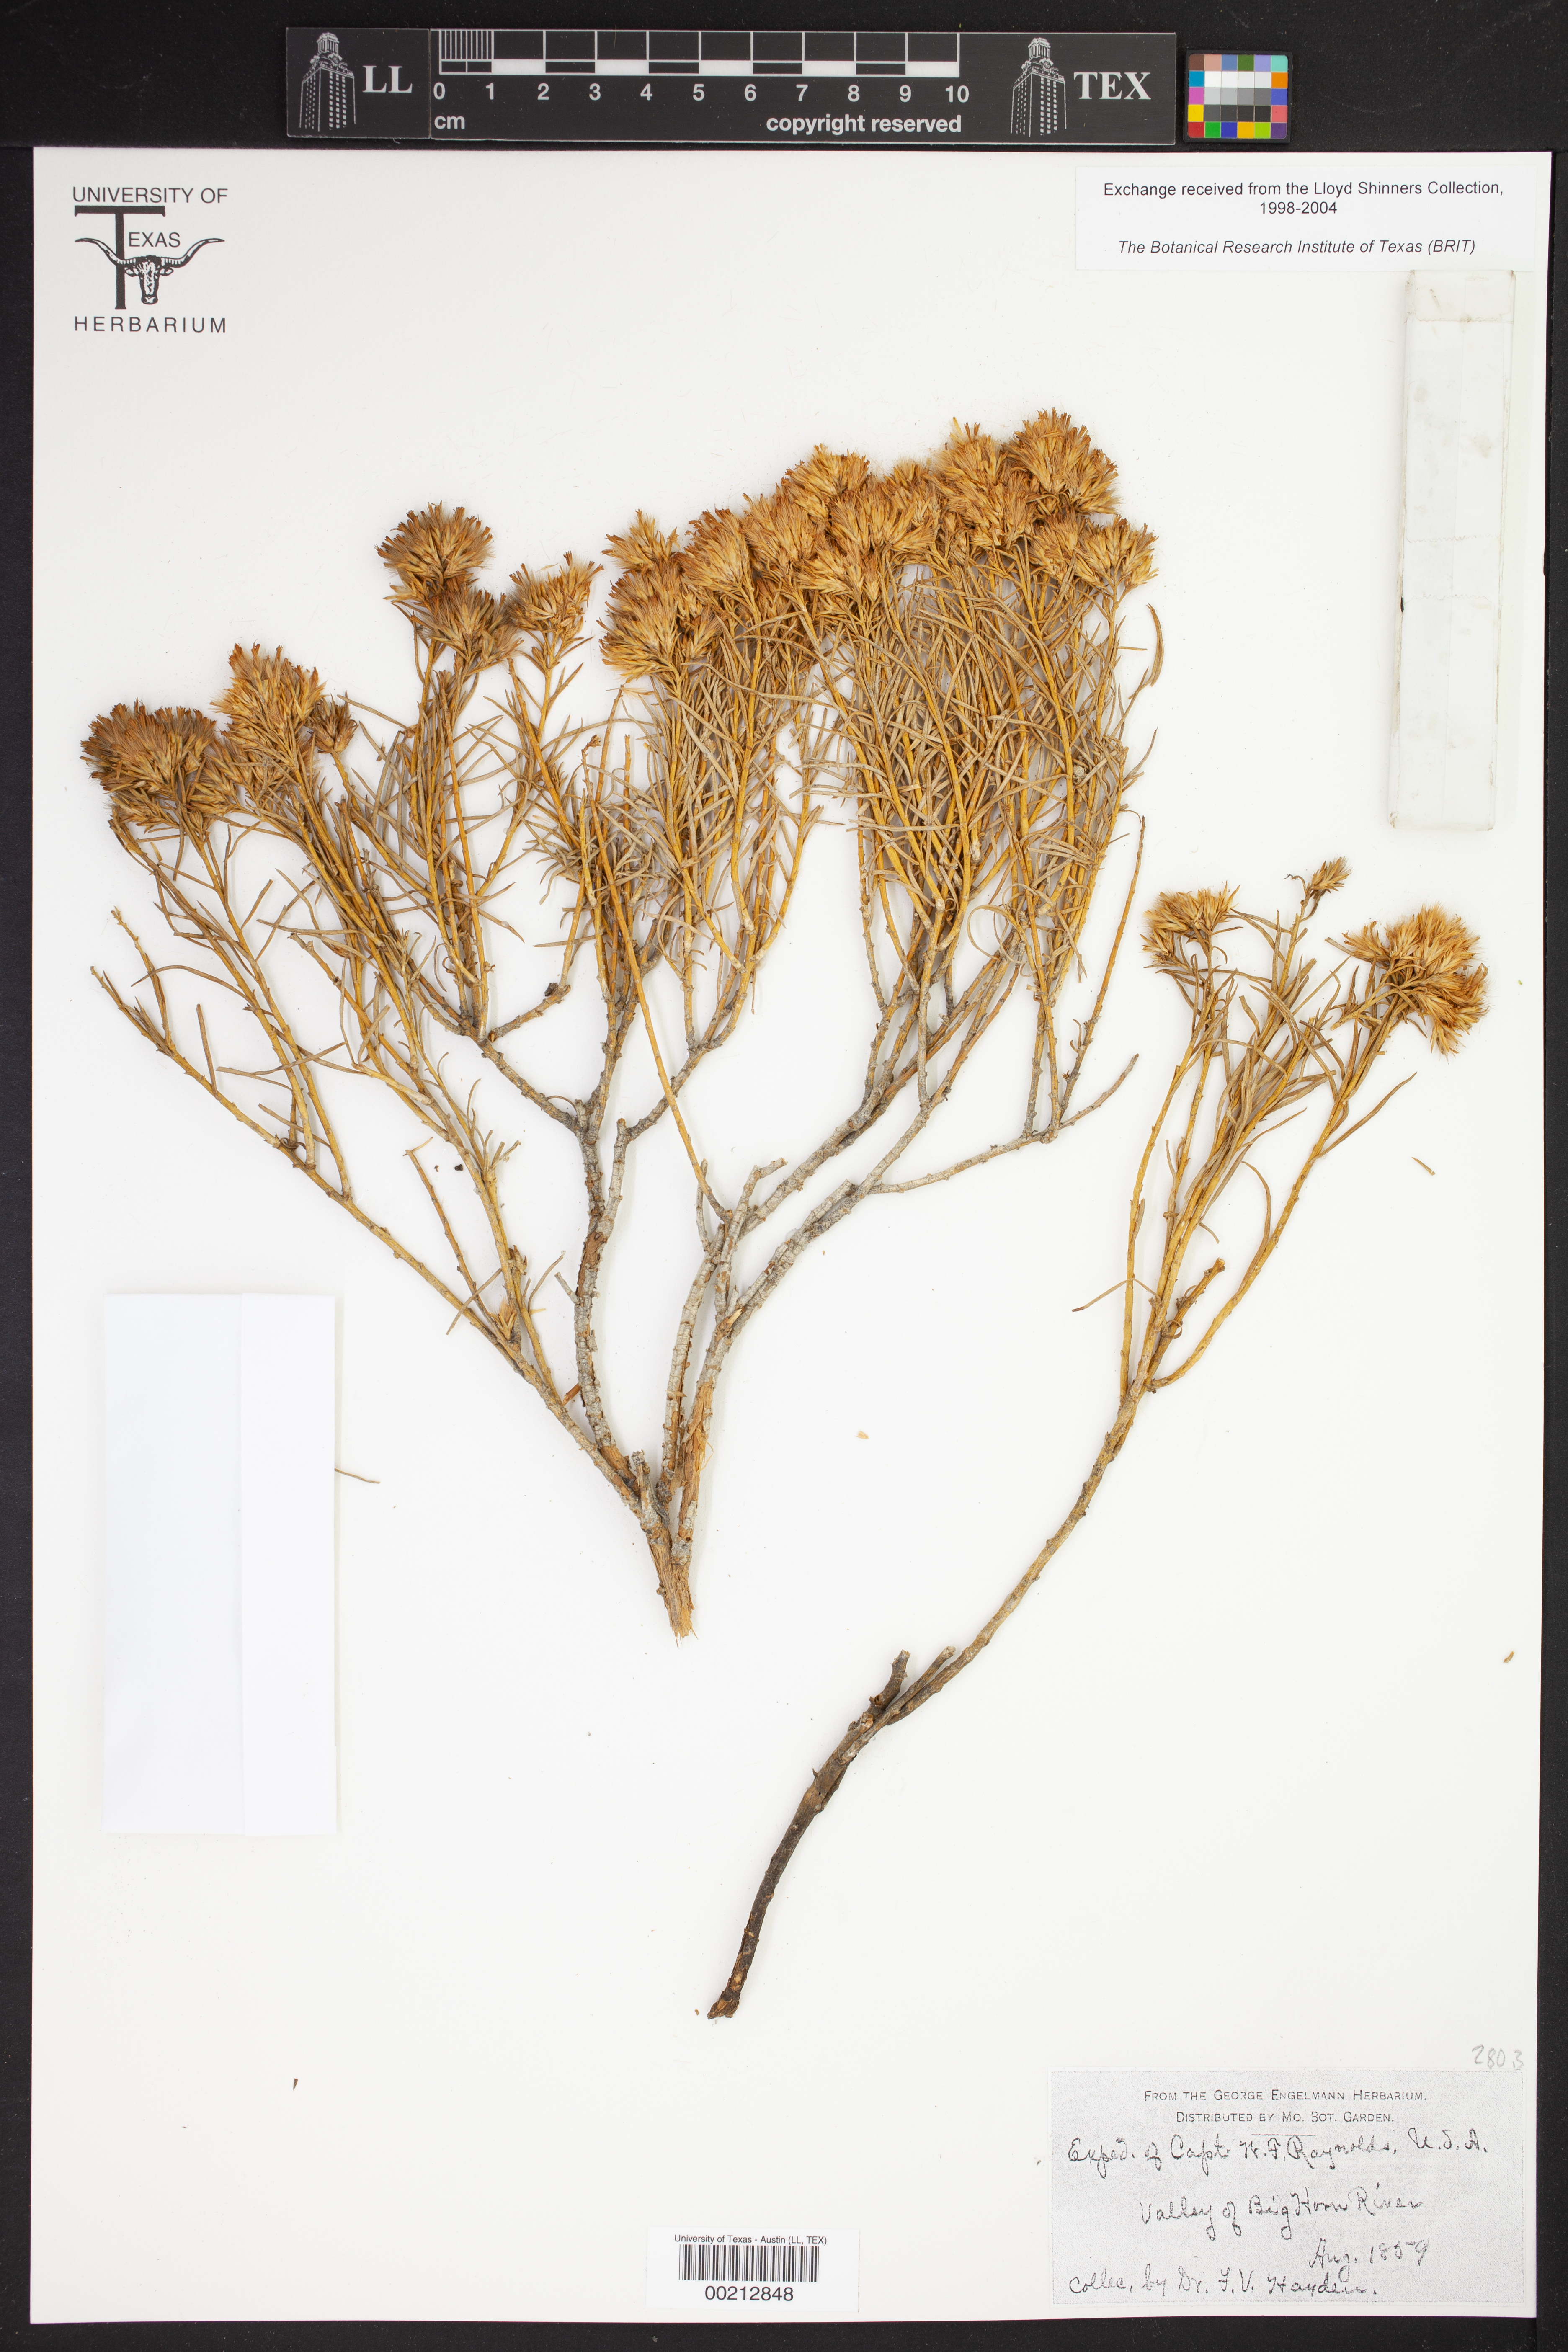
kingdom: Plantae
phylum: Tracheophyta
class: Magnoliopsida
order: Lamiales
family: Acanthaceae
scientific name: Acanthaceae
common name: Acanthaceae
